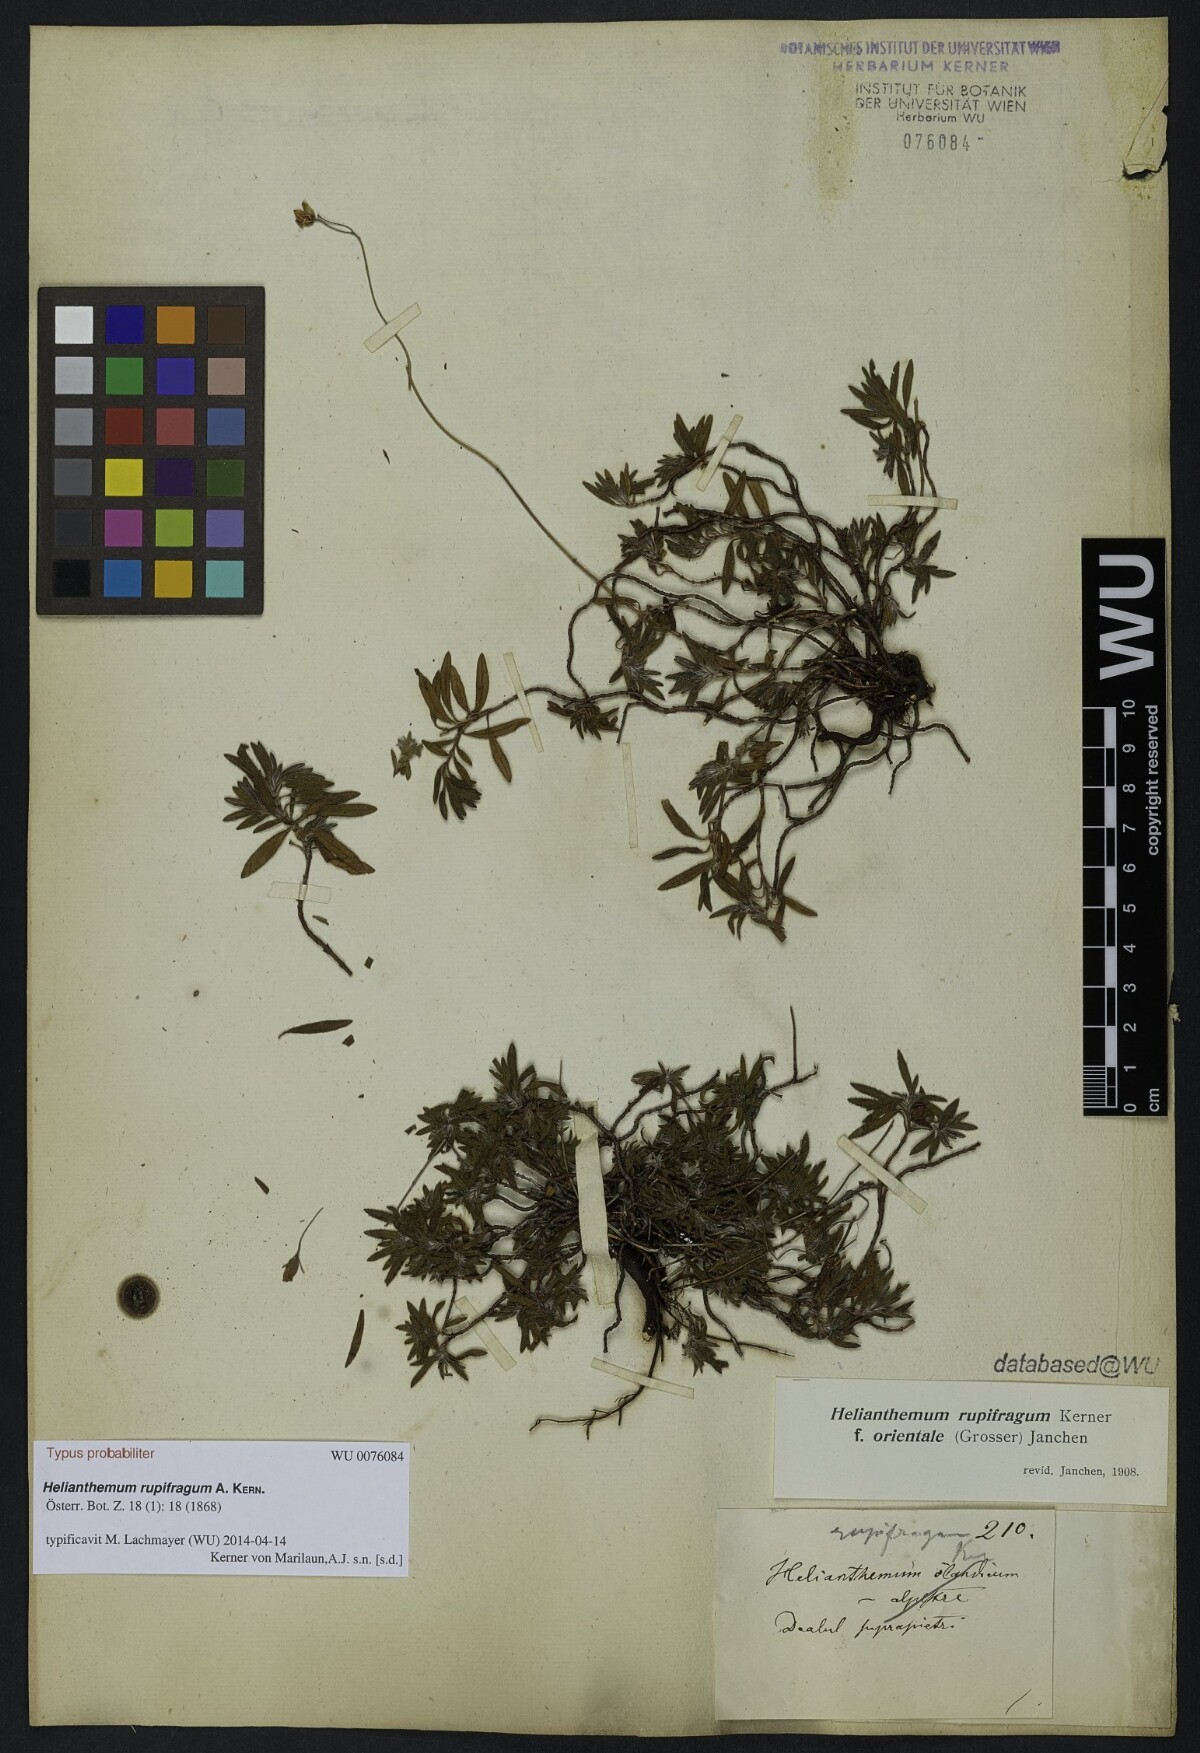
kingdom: Plantae
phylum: Tracheophyta
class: Magnoliopsida
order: Malvales
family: Cistaceae
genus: Helianthemum
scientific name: Helianthemum rupifragum
